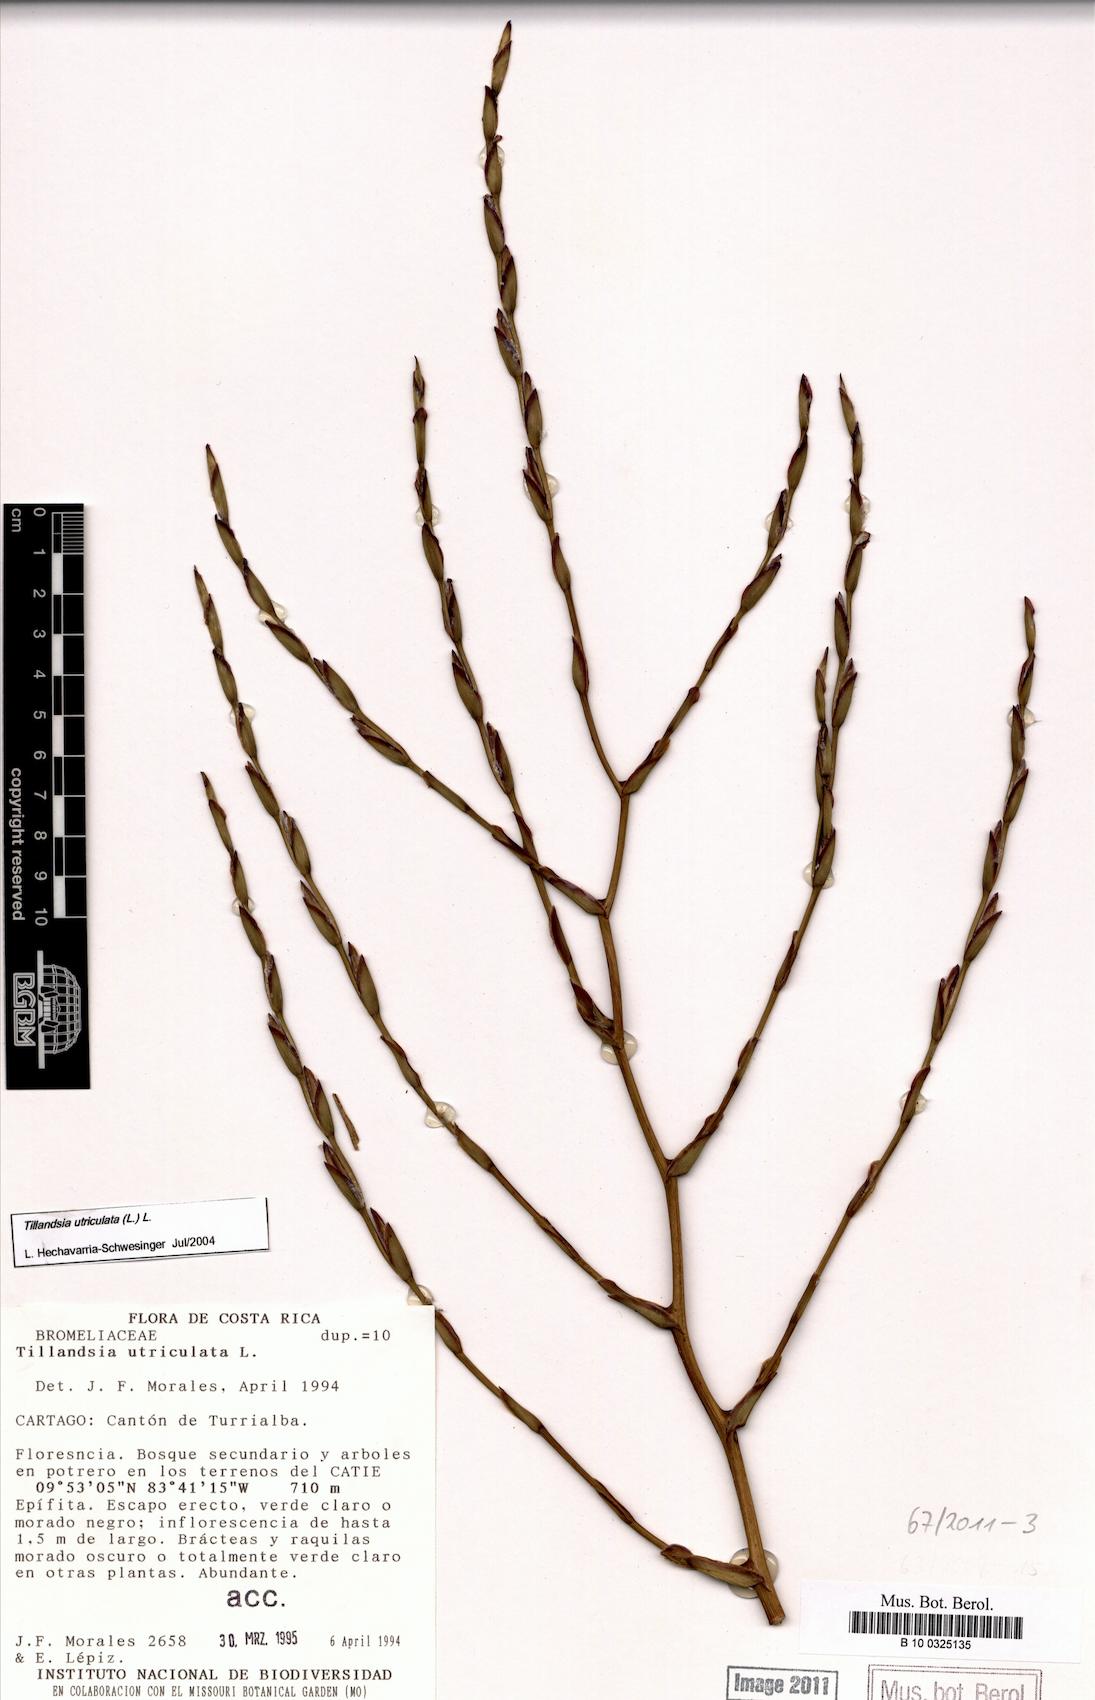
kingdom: Plantae
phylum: Tracheophyta
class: Liliopsida
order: Poales
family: Bromeliaceae
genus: Tillandsia
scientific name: Tillandsia utriculata
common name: Wild pine
